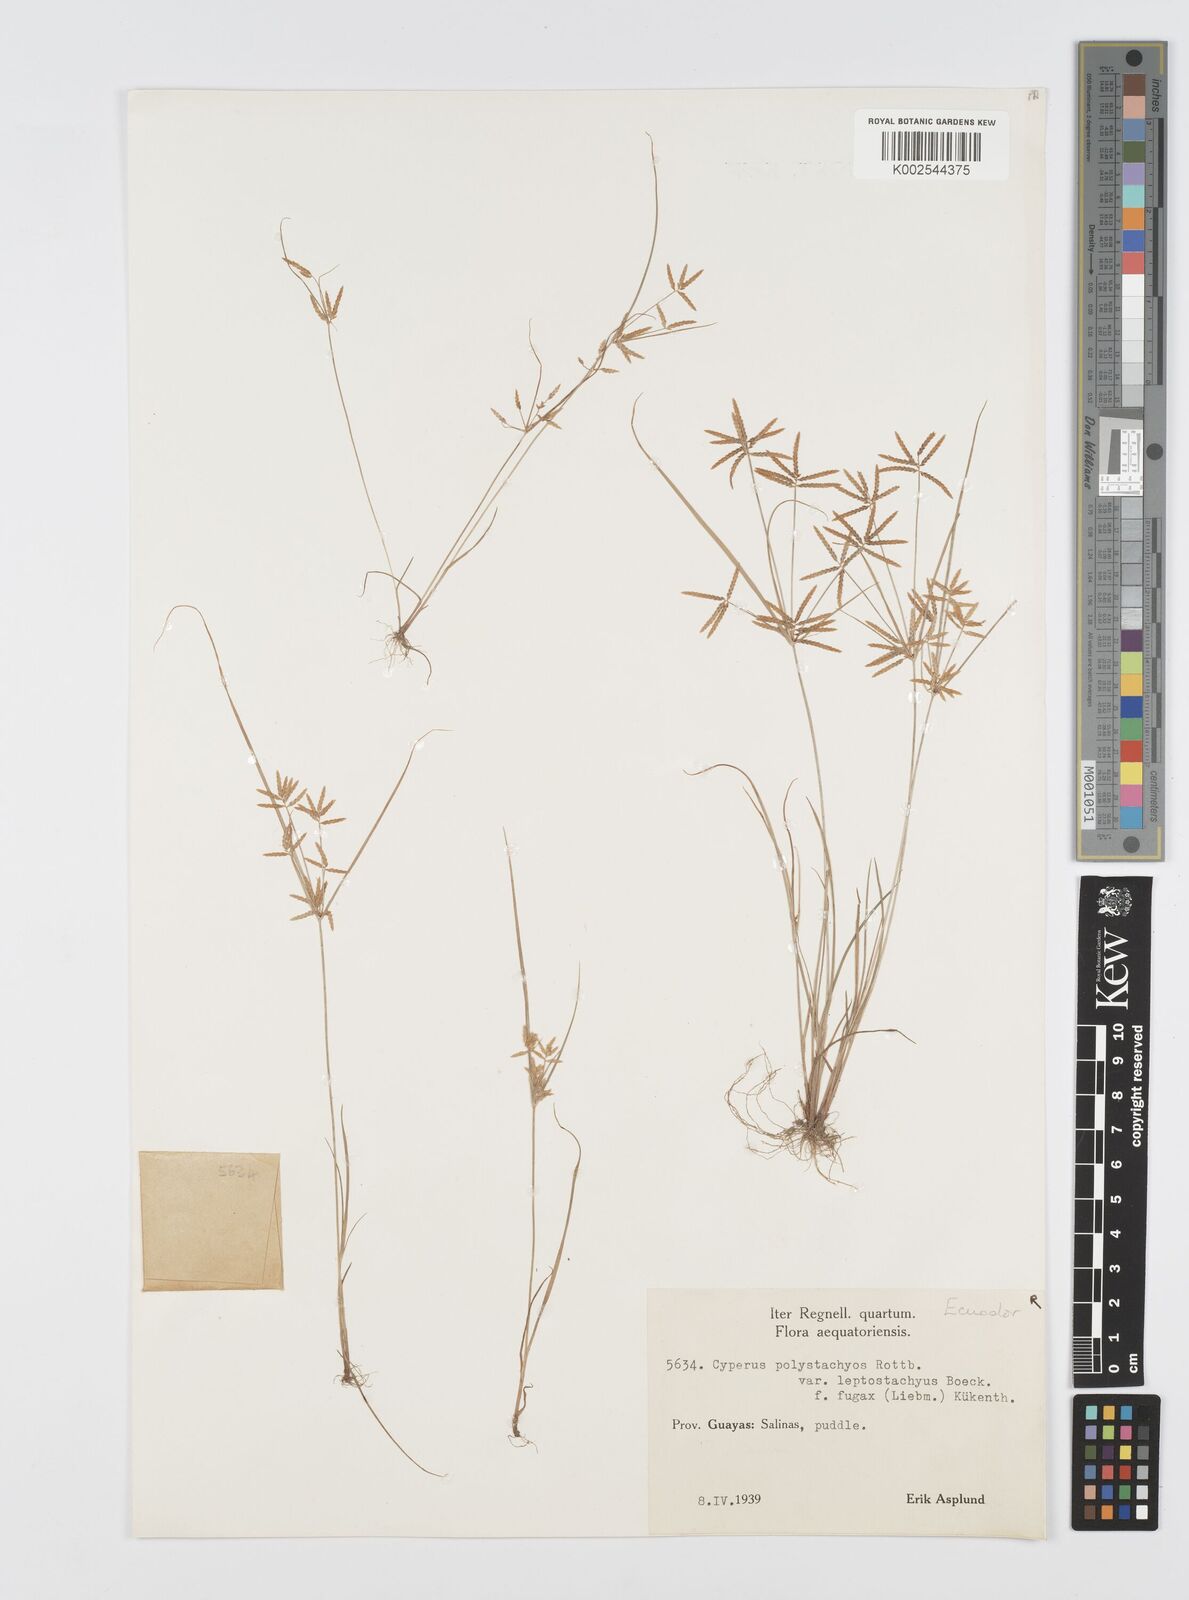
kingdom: Plantae
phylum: Tracheophyta
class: Liliopsida
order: Poales
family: Cyperaceae
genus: Cyperus
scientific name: Cyperus polystachyos
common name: Bunchy flat sedge
